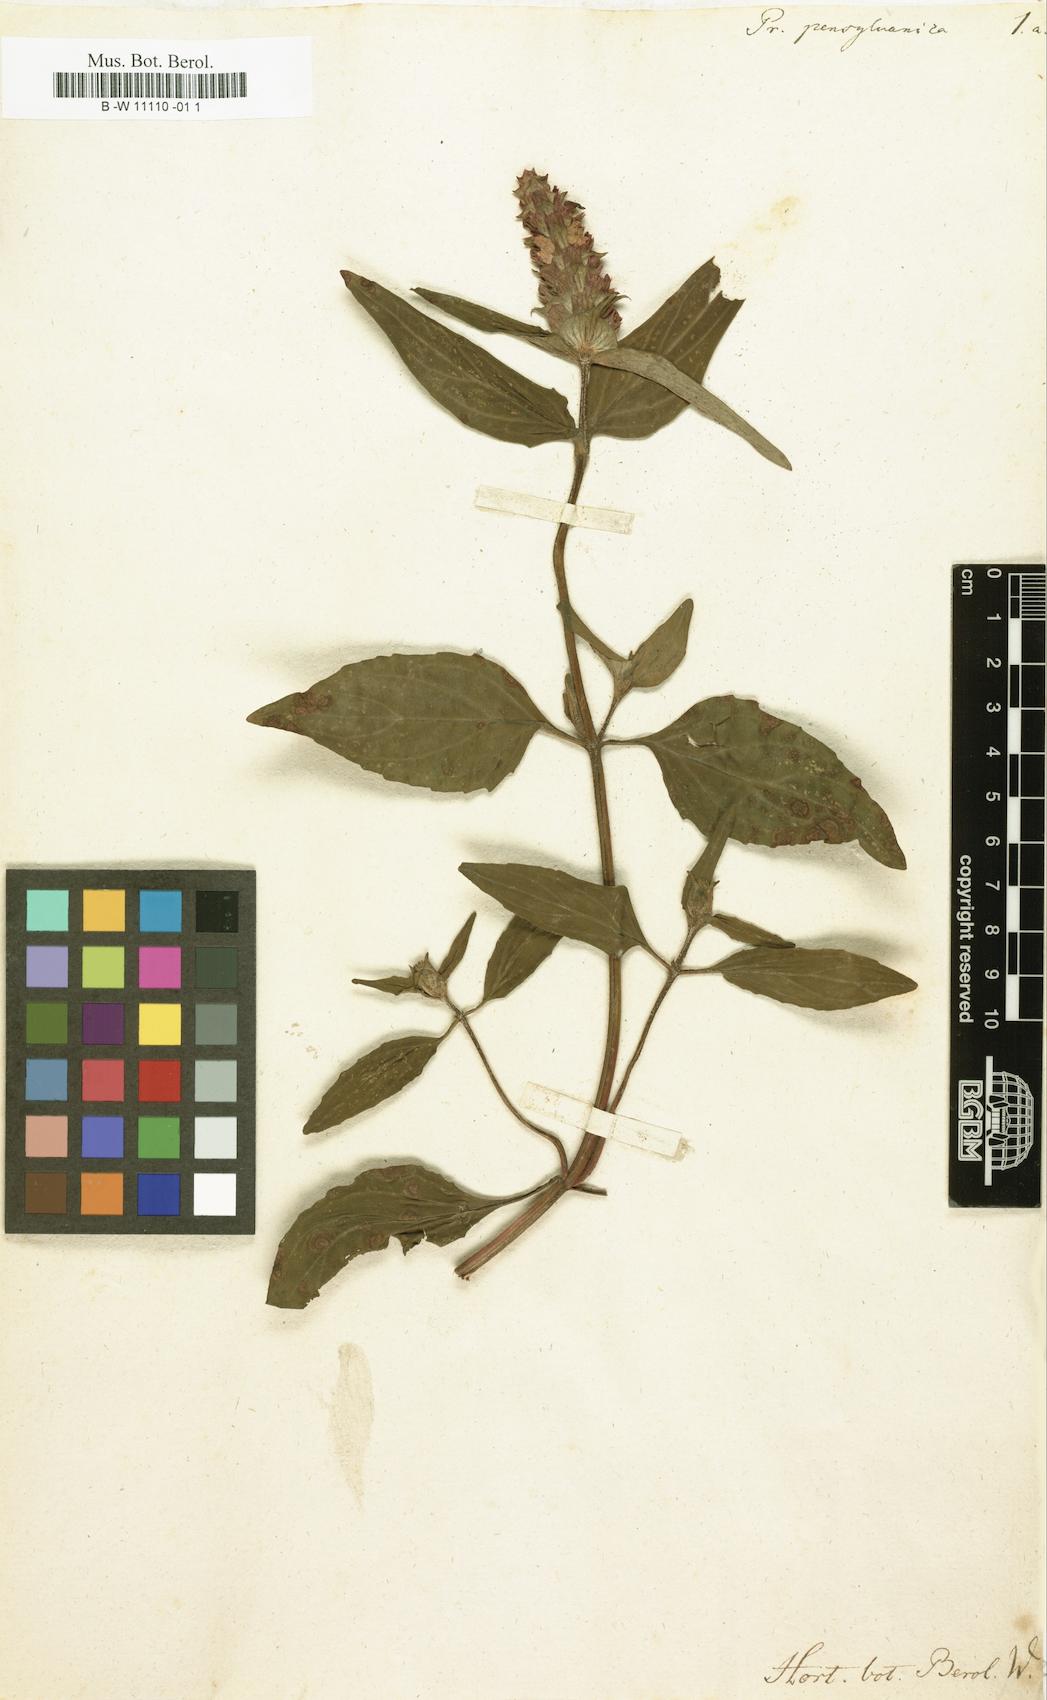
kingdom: Plantae
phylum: Tracheophyta
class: Magnoliopsida
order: Lamiales
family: Lamiaceae
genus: Prunella
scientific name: Prunella vulgaris
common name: Heal-all
